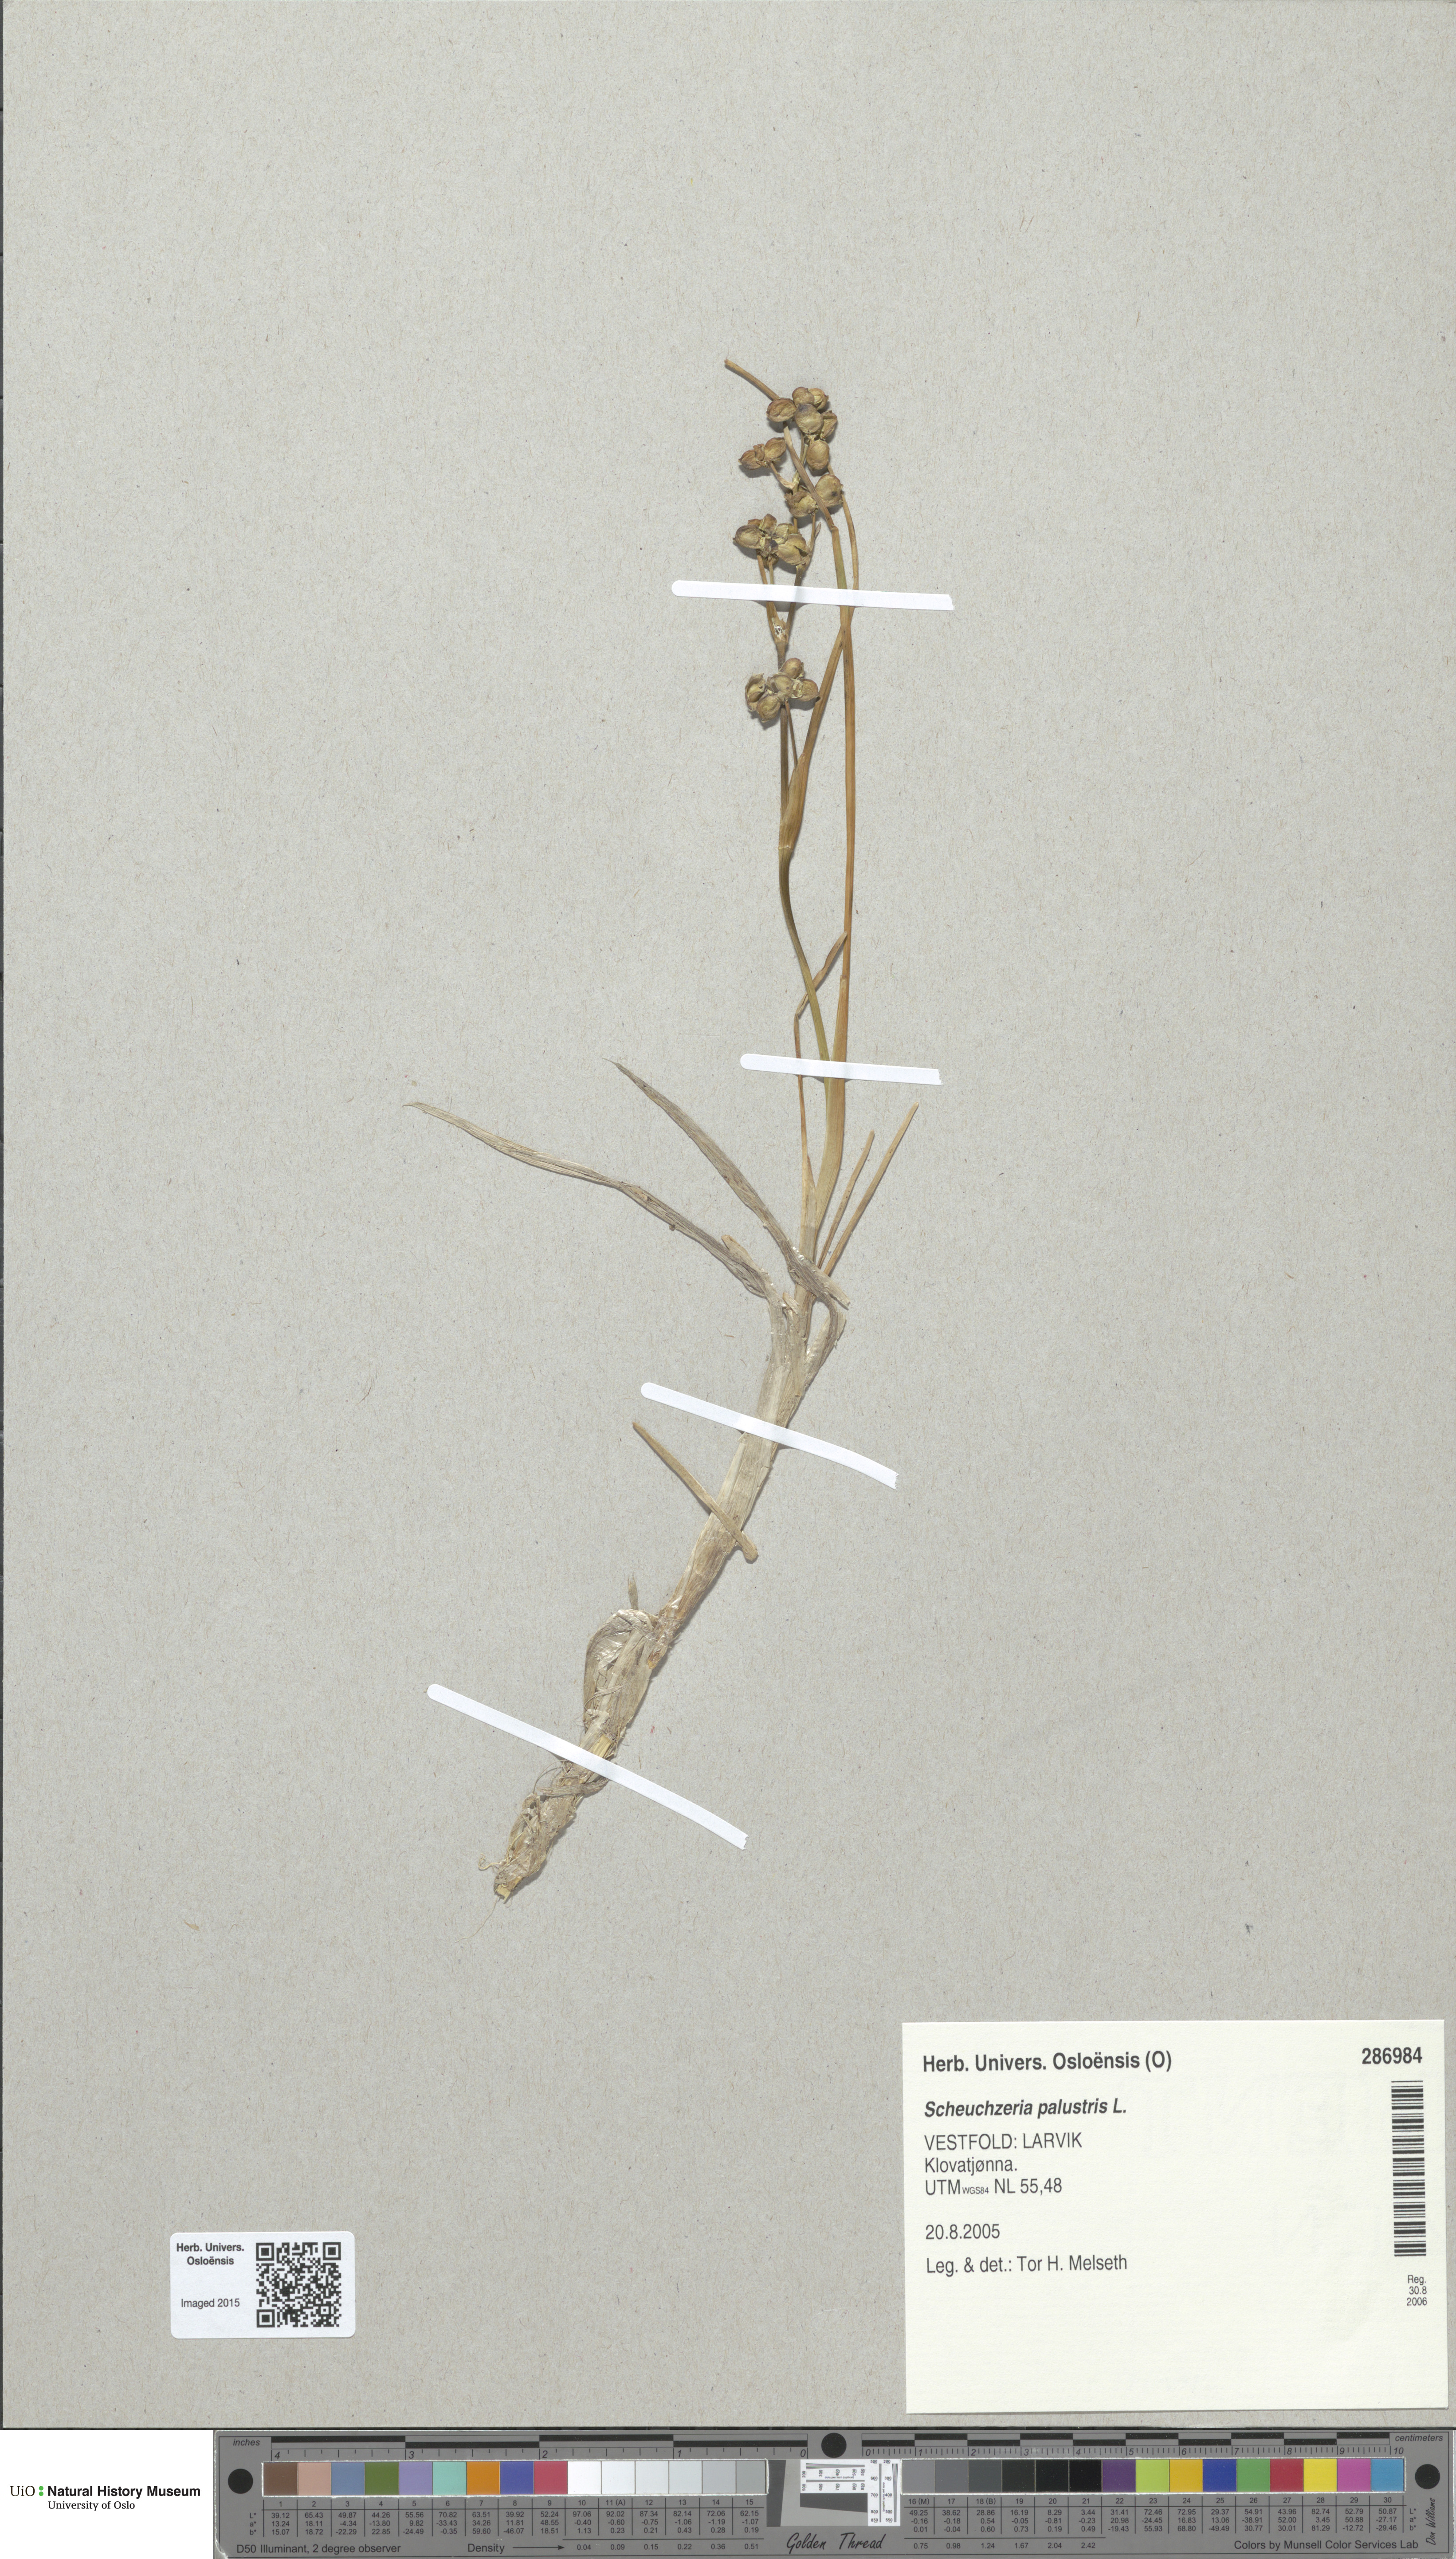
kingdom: Plantae
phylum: Tracheophyta
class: Liliopsida
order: Alismatales
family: Scheuchzeriaceae
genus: Scheuchzeria
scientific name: Scheuchzeria palustris
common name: Rannoch-rush
